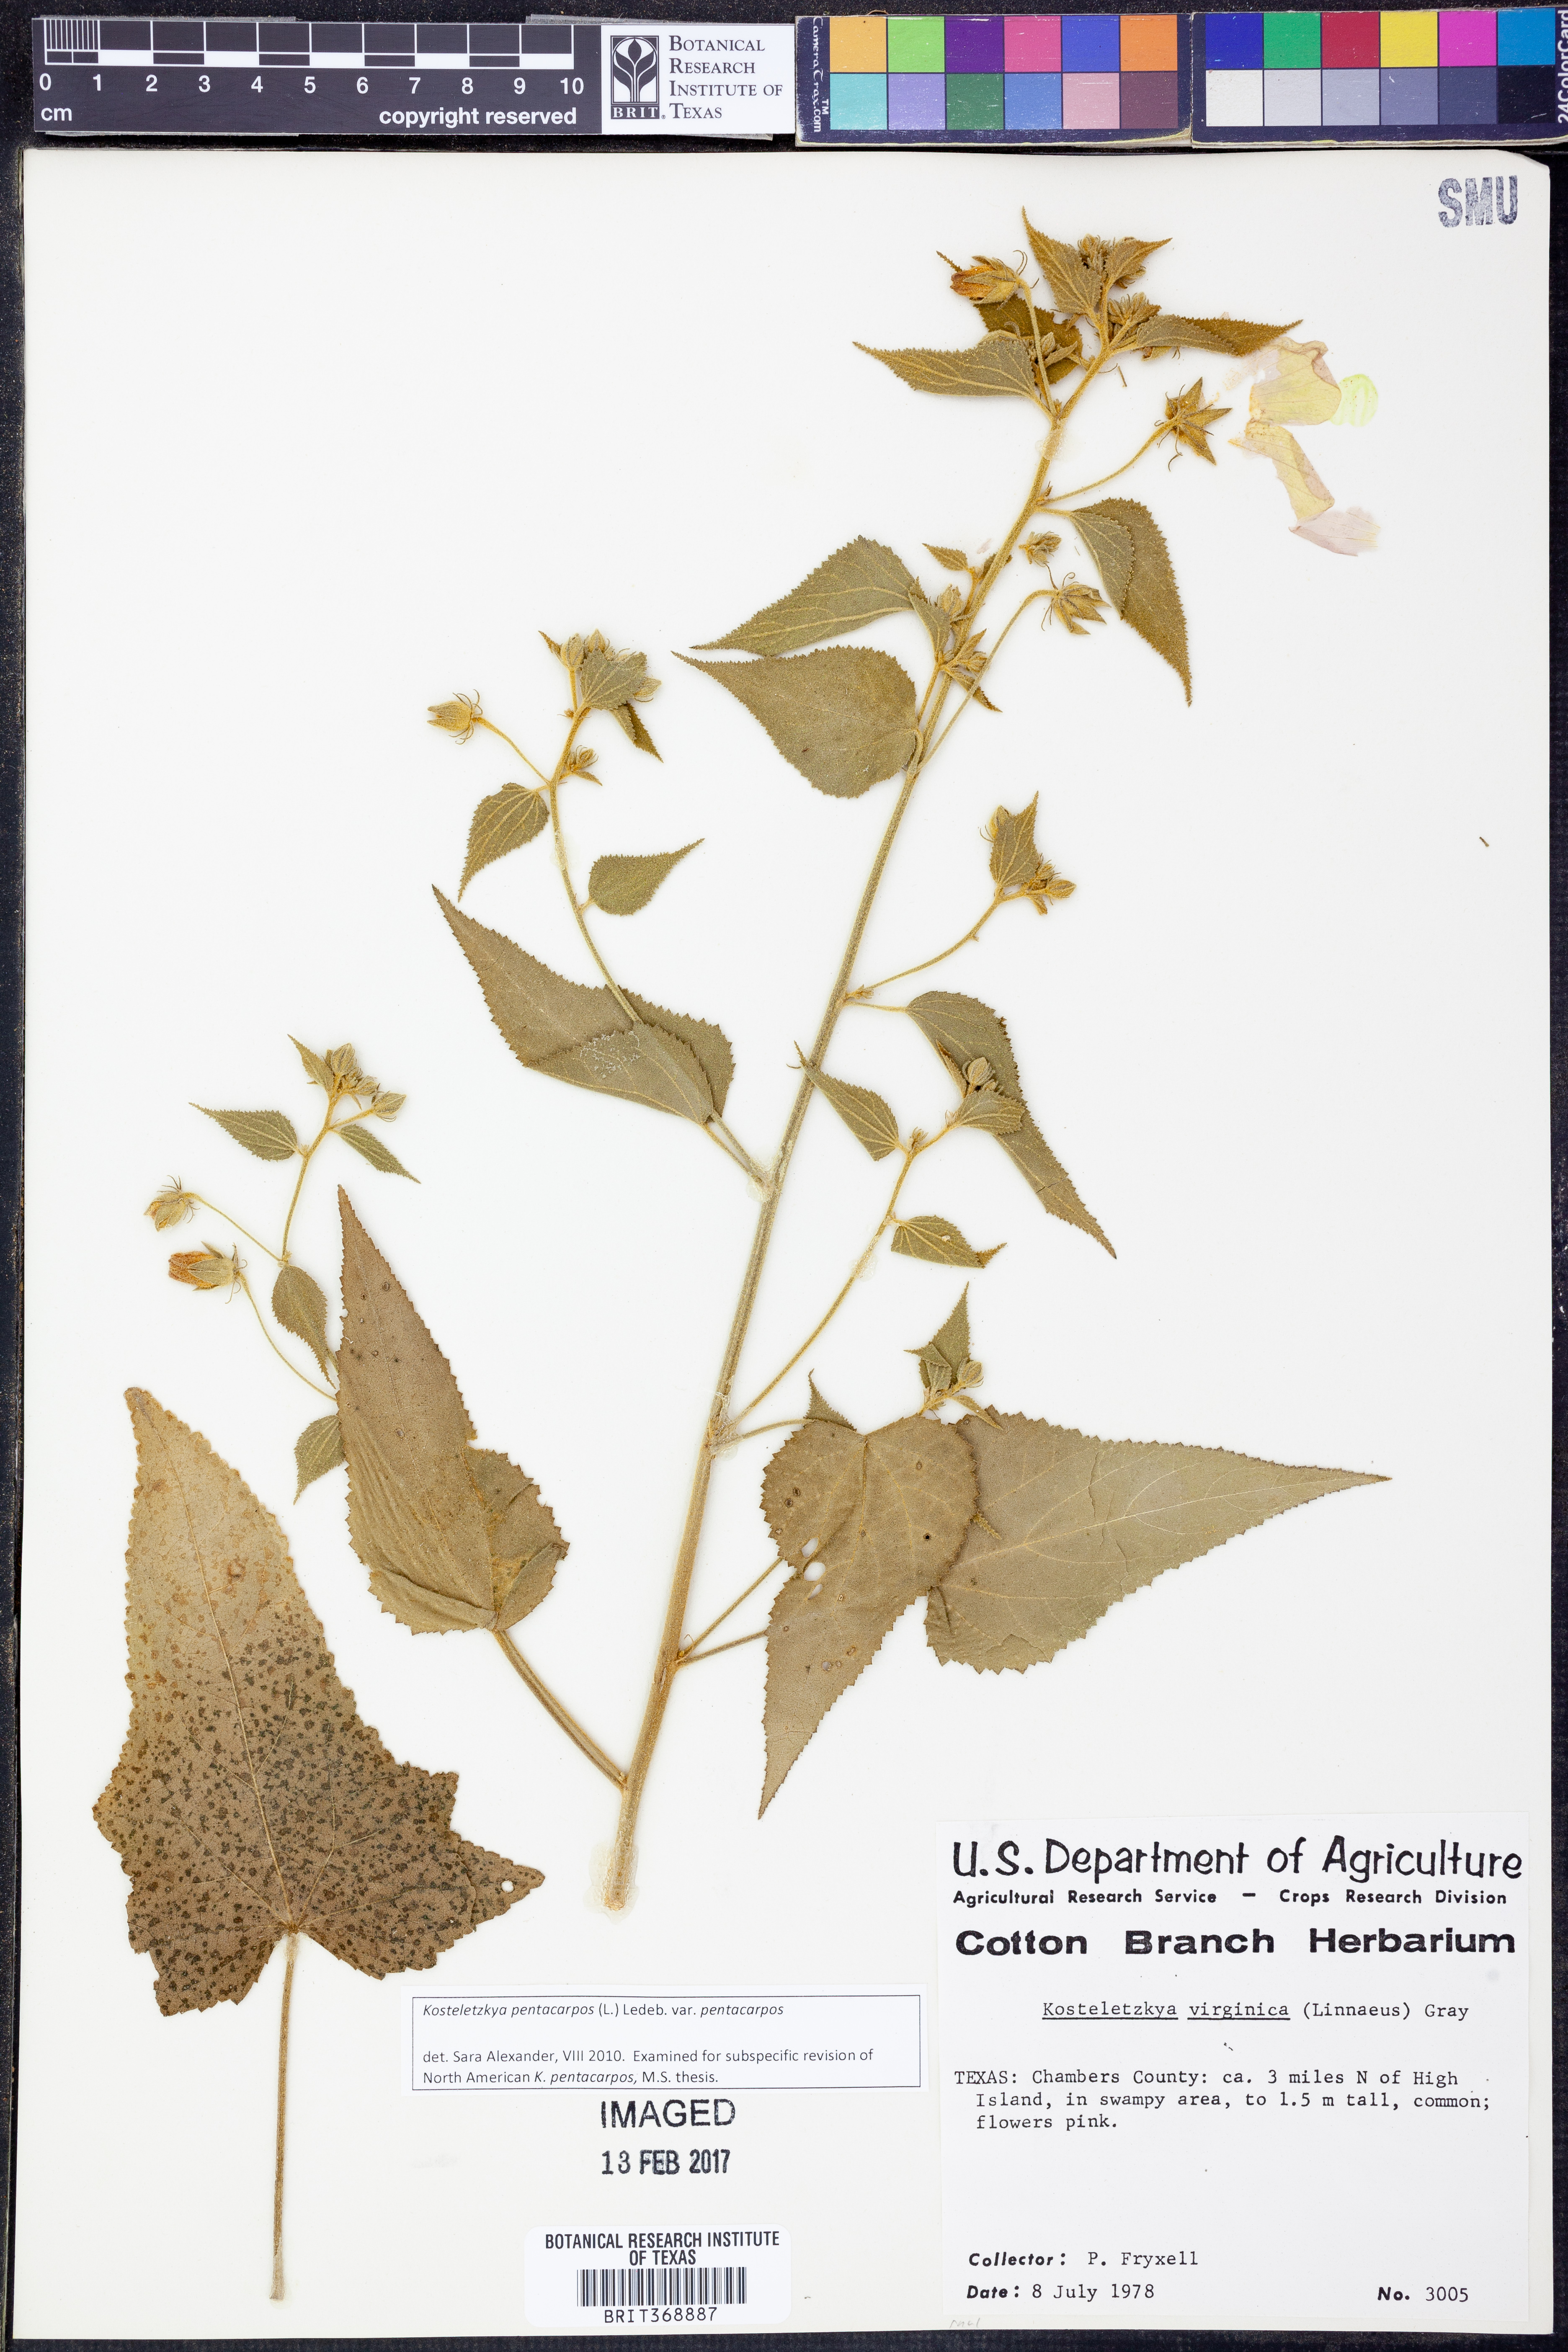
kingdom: Plantae
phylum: Tracheophyta
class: Magnoliopsida
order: Malvales
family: Malvaceae
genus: Kosteletzkya
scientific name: Kosteletzkya pentacarpos
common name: Virginia saltmarsh mallow
